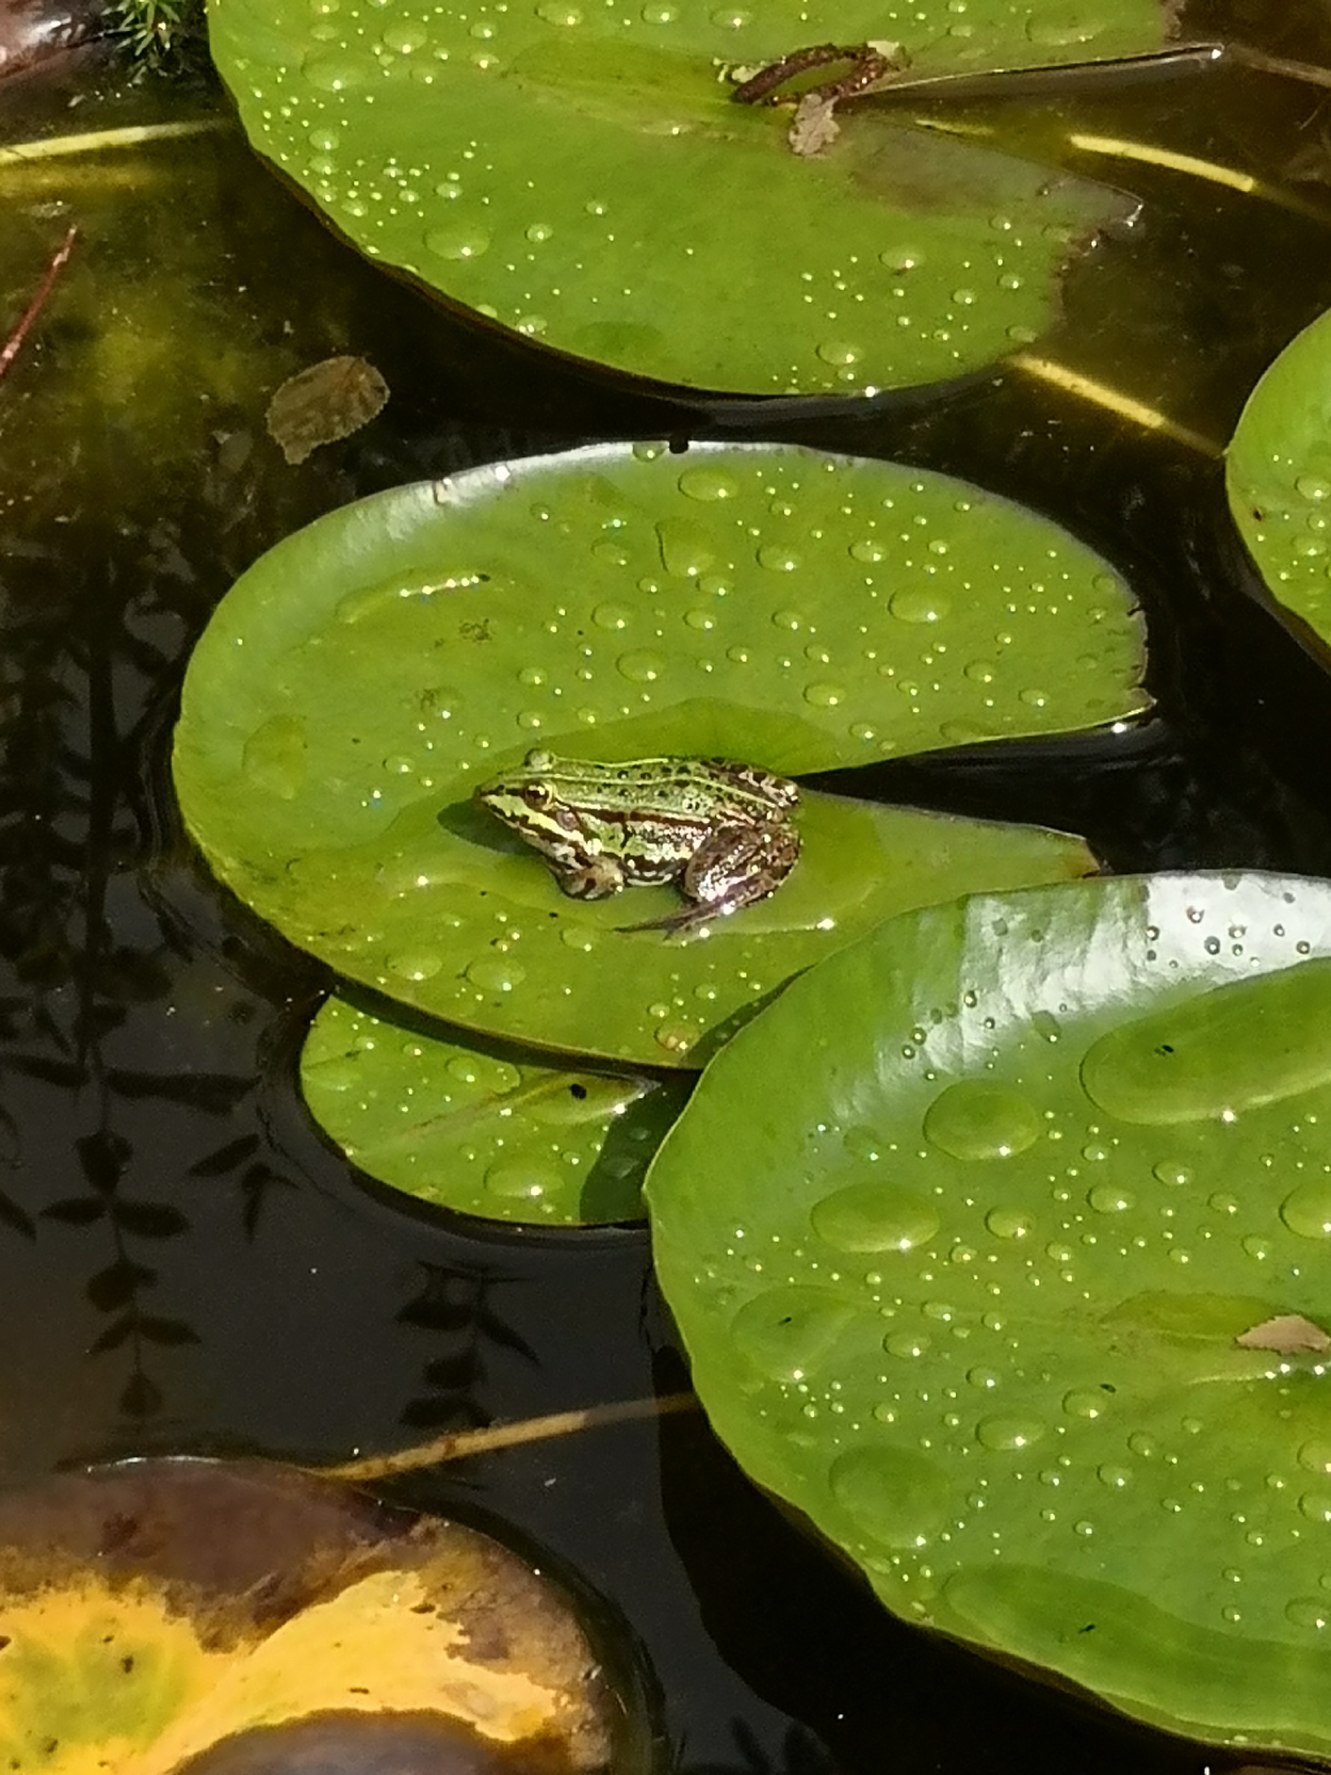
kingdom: Animalia
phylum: Chordata
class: Amphibia
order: Anura
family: Ranidae
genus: Pelophylax
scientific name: Pelophylax lessonae
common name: Grøn frø
